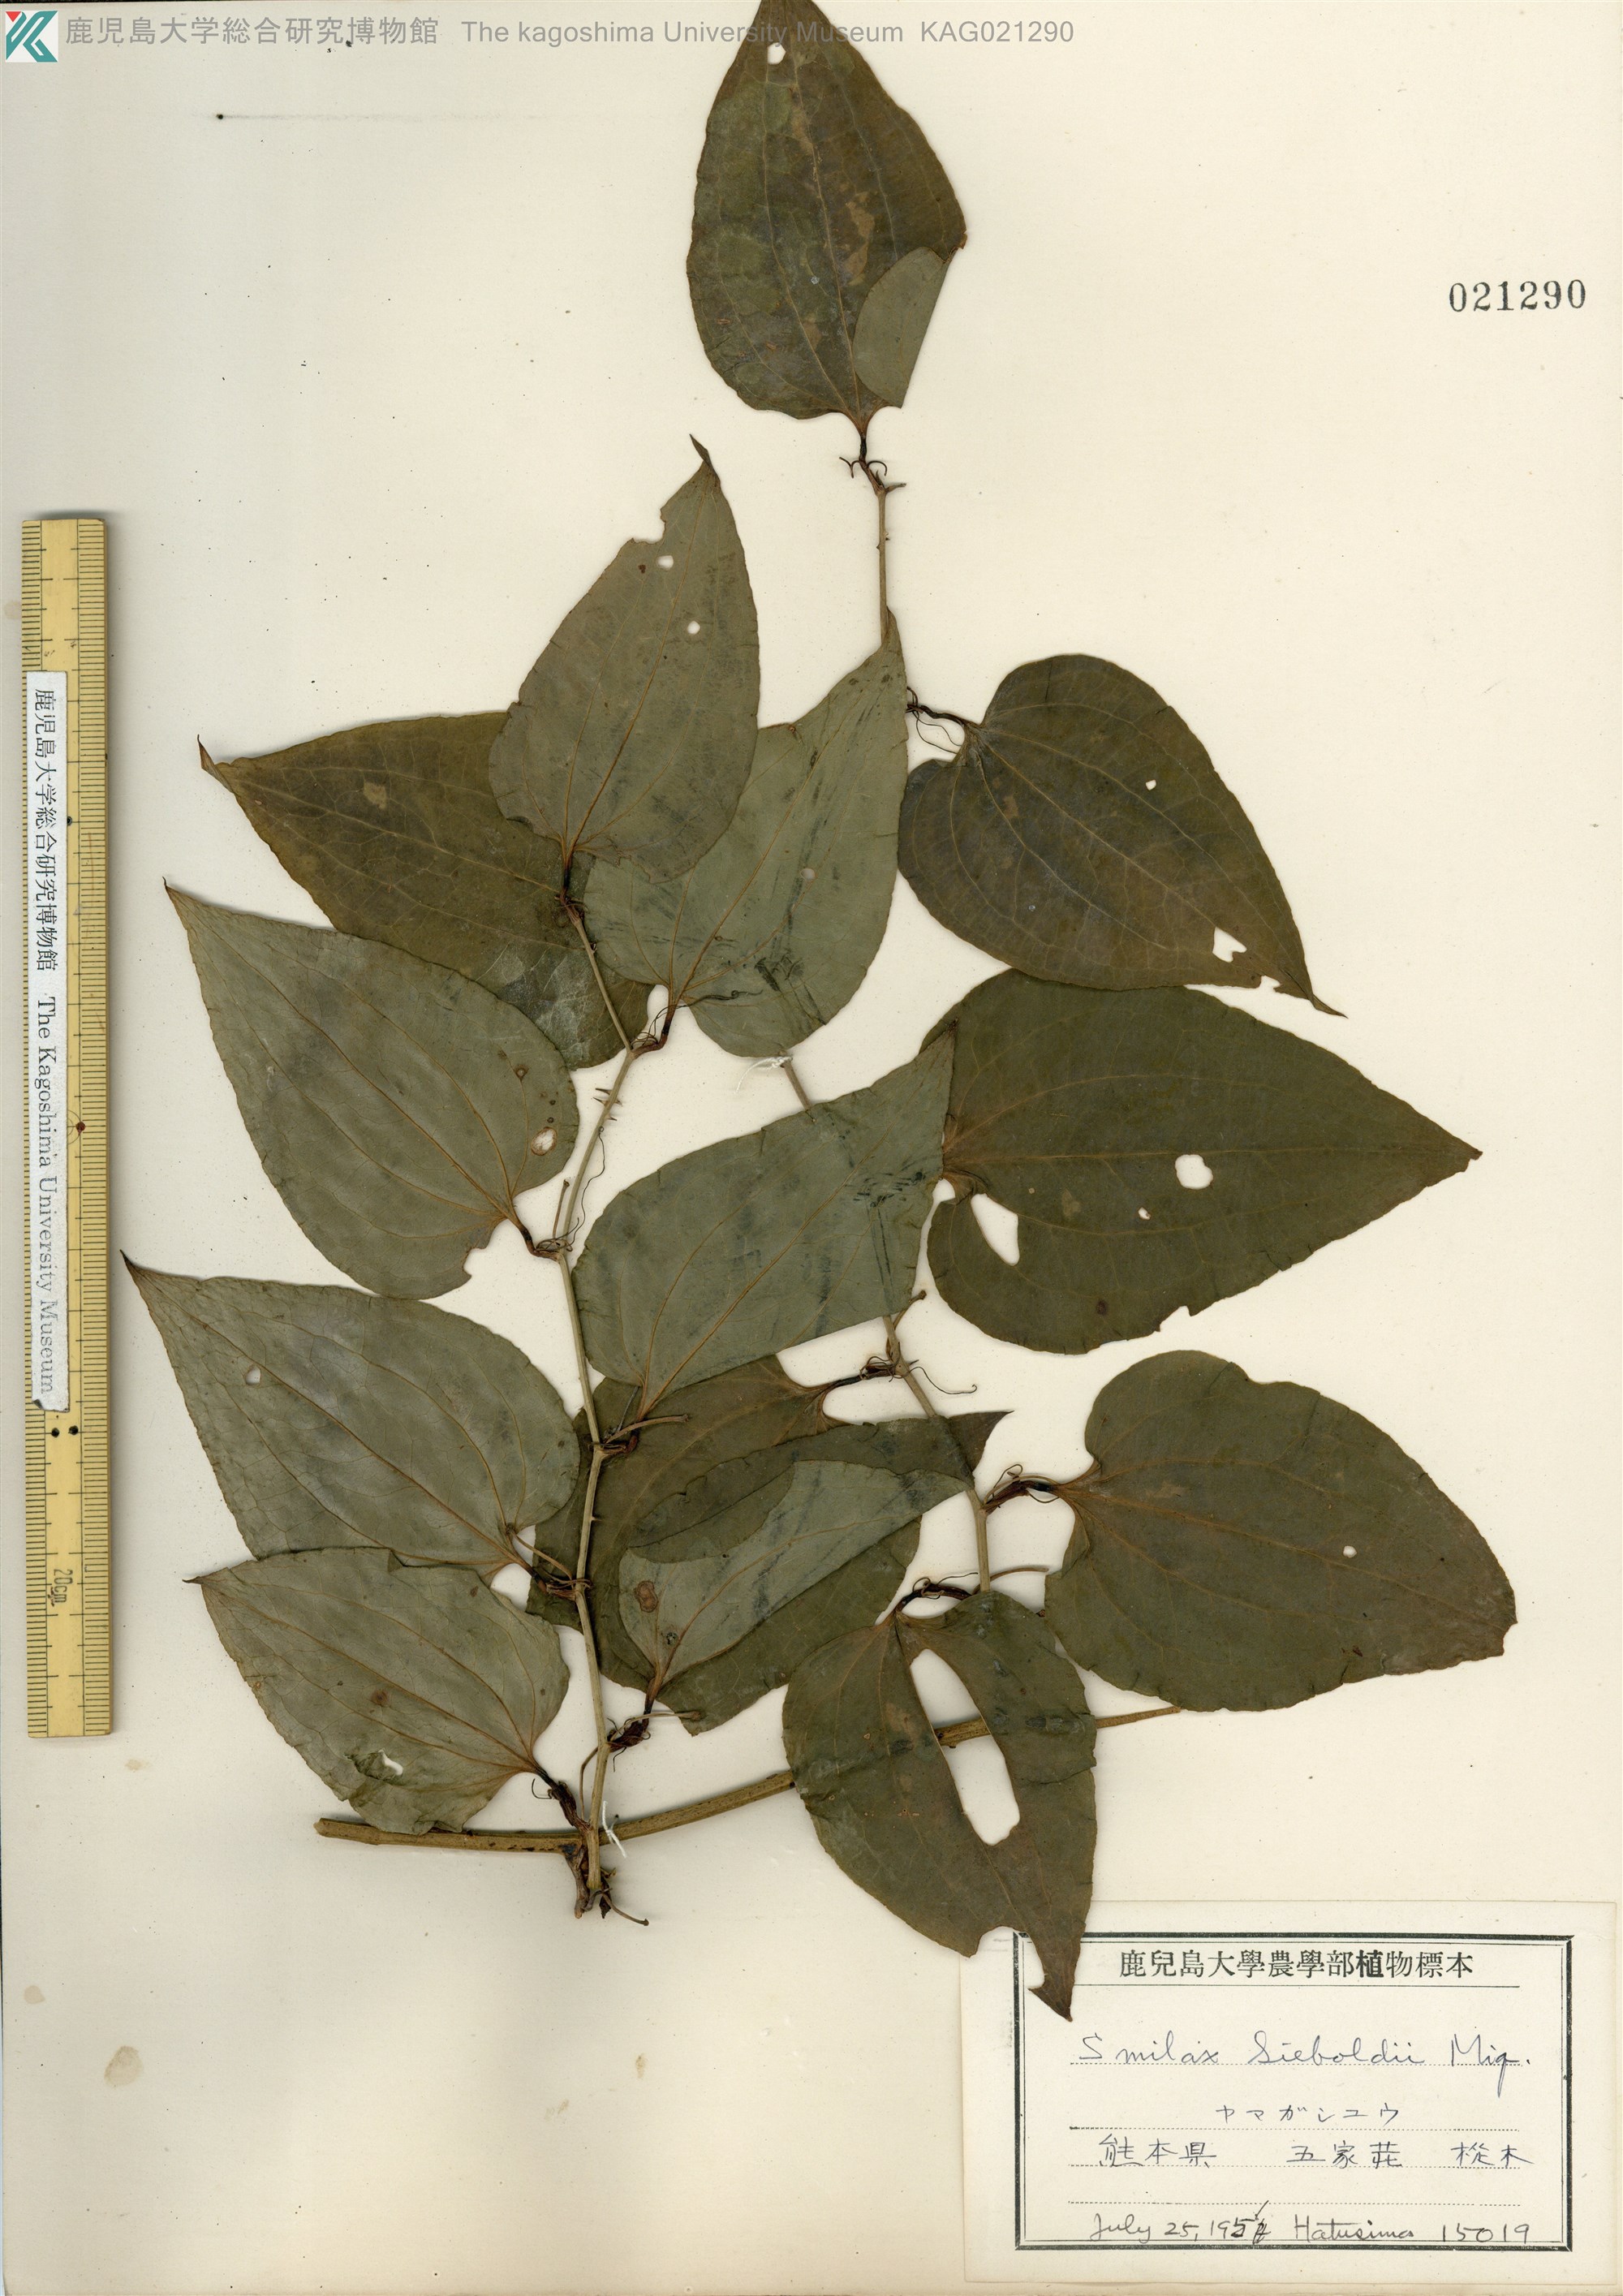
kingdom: Plantae
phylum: Tracheophyta
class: Liliopsida
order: Liliales
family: Smilacaceae
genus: Smilax
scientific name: Smilax sieboldii
